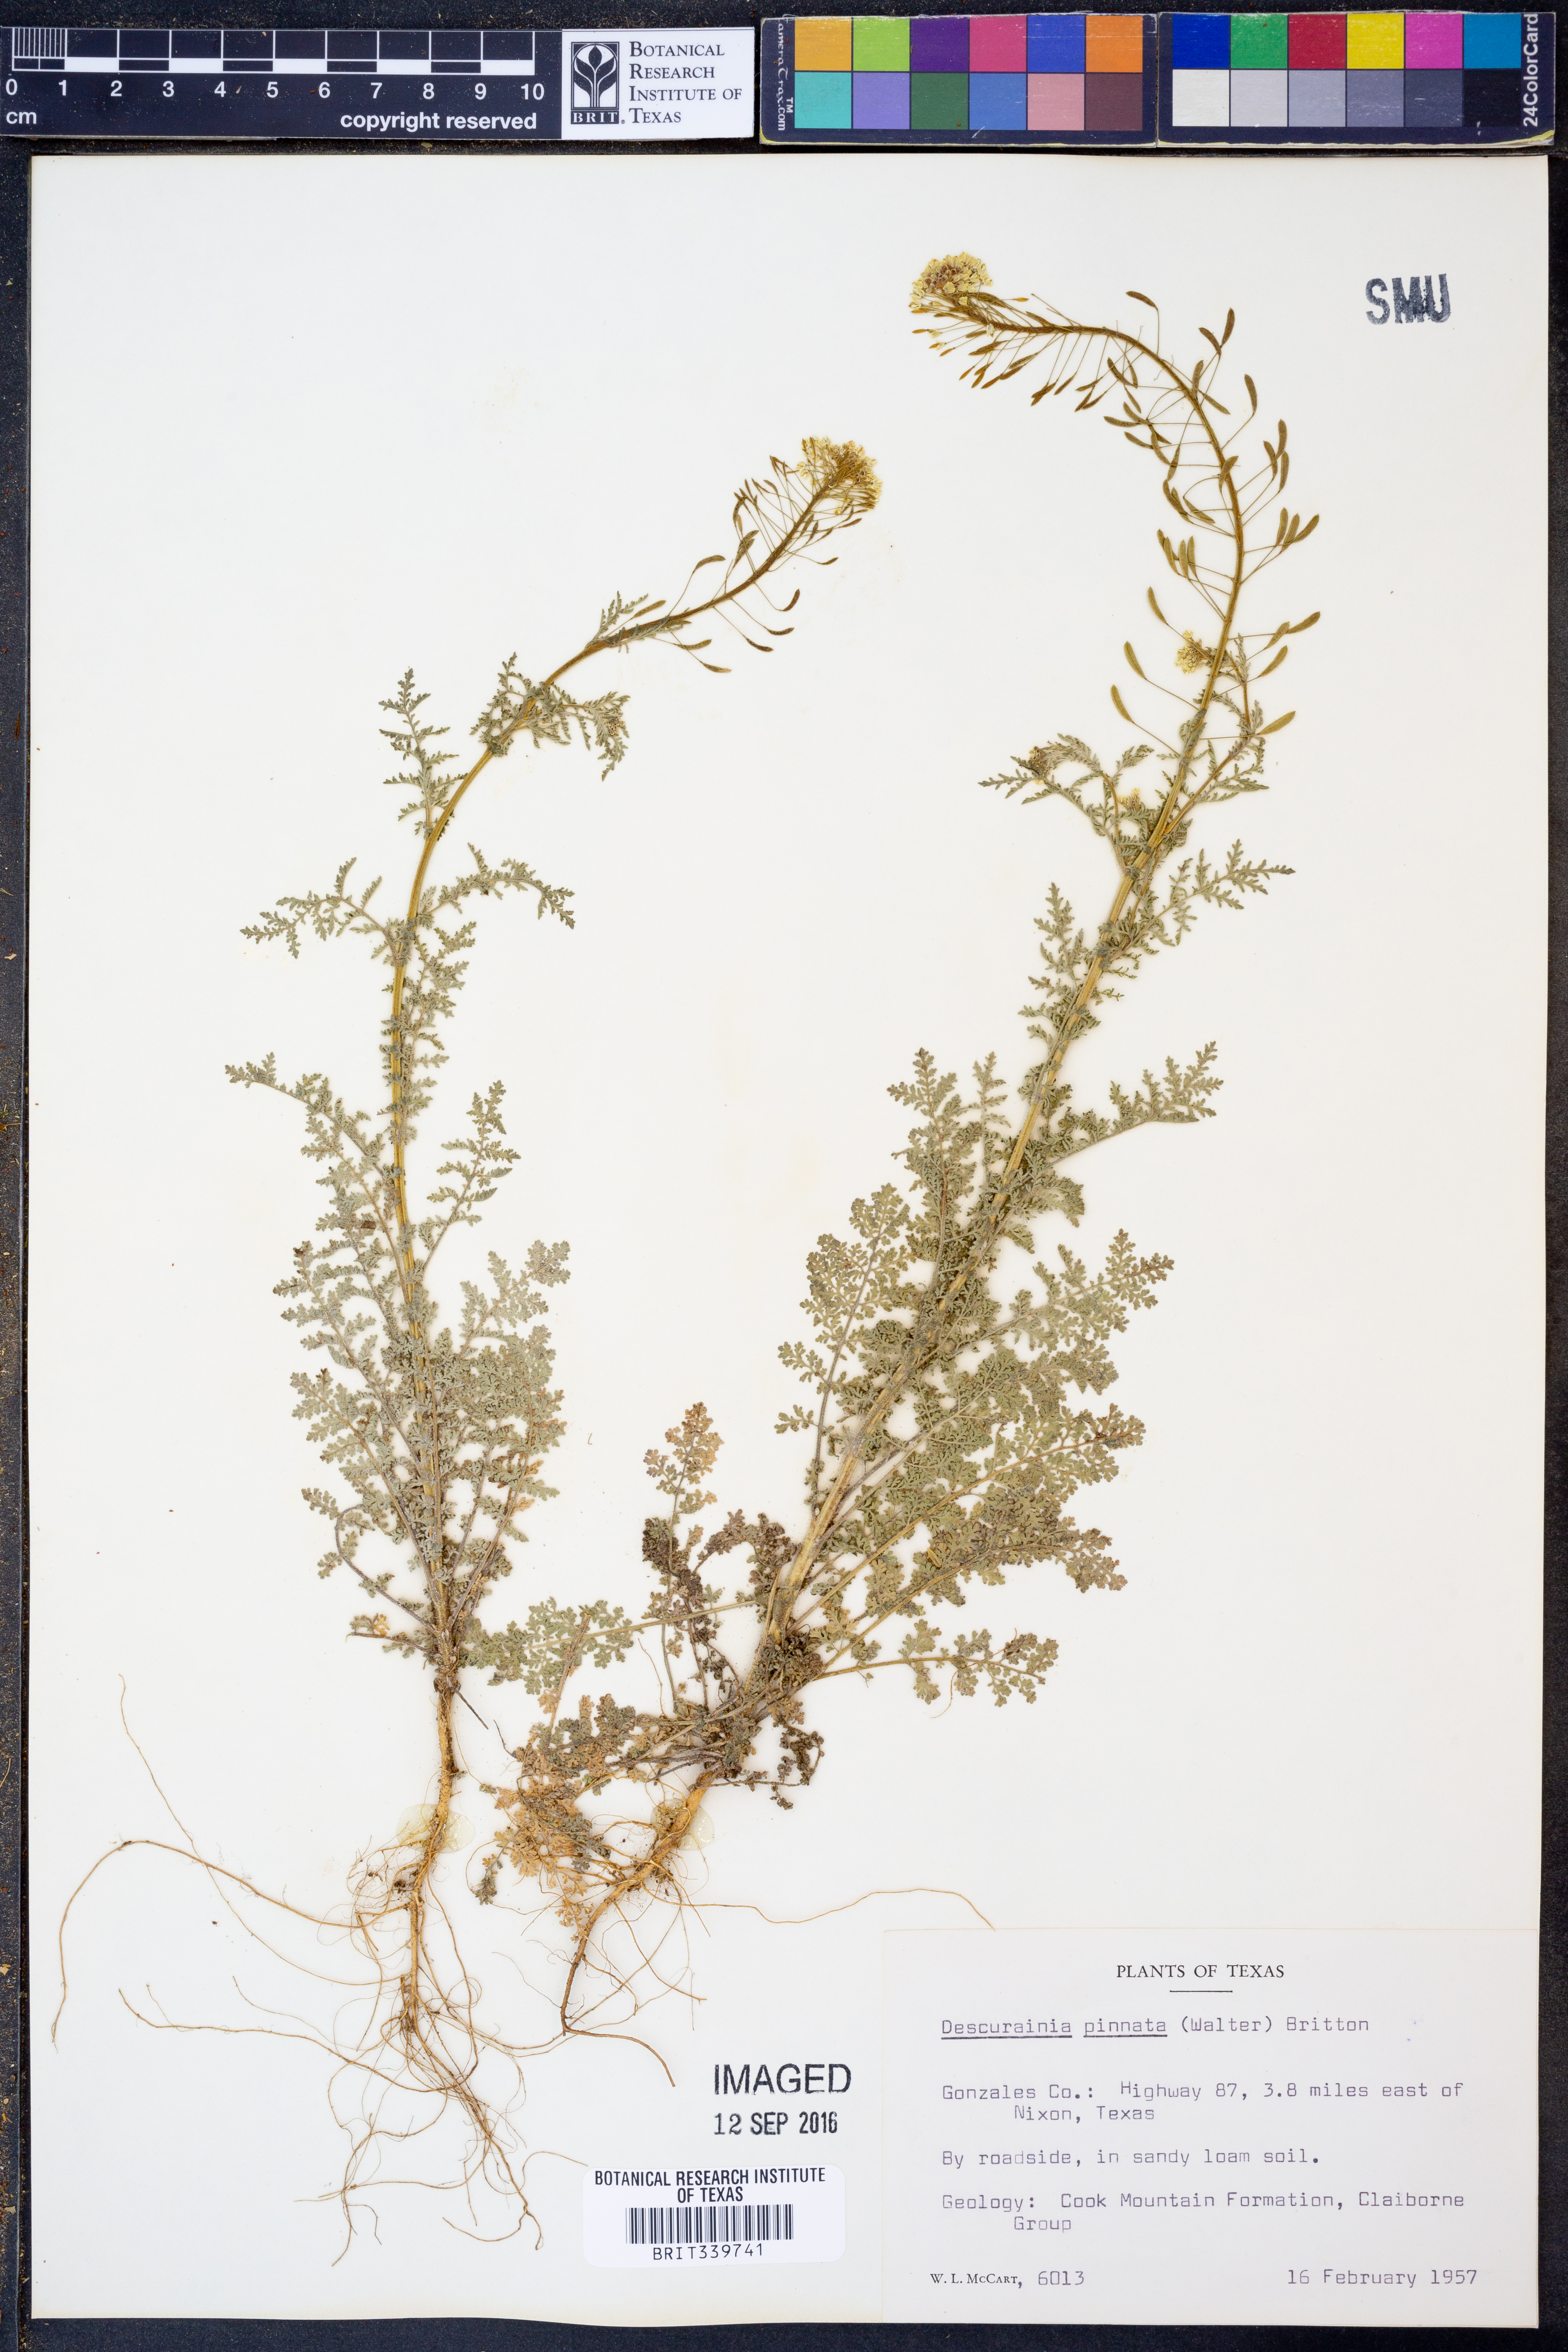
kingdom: Plantae
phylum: Tracheophyta
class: Magnoliopsida
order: Brassicales
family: Brassicaceae
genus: Descurainia
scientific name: Descurainia pinnata
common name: Western tansy mustard
